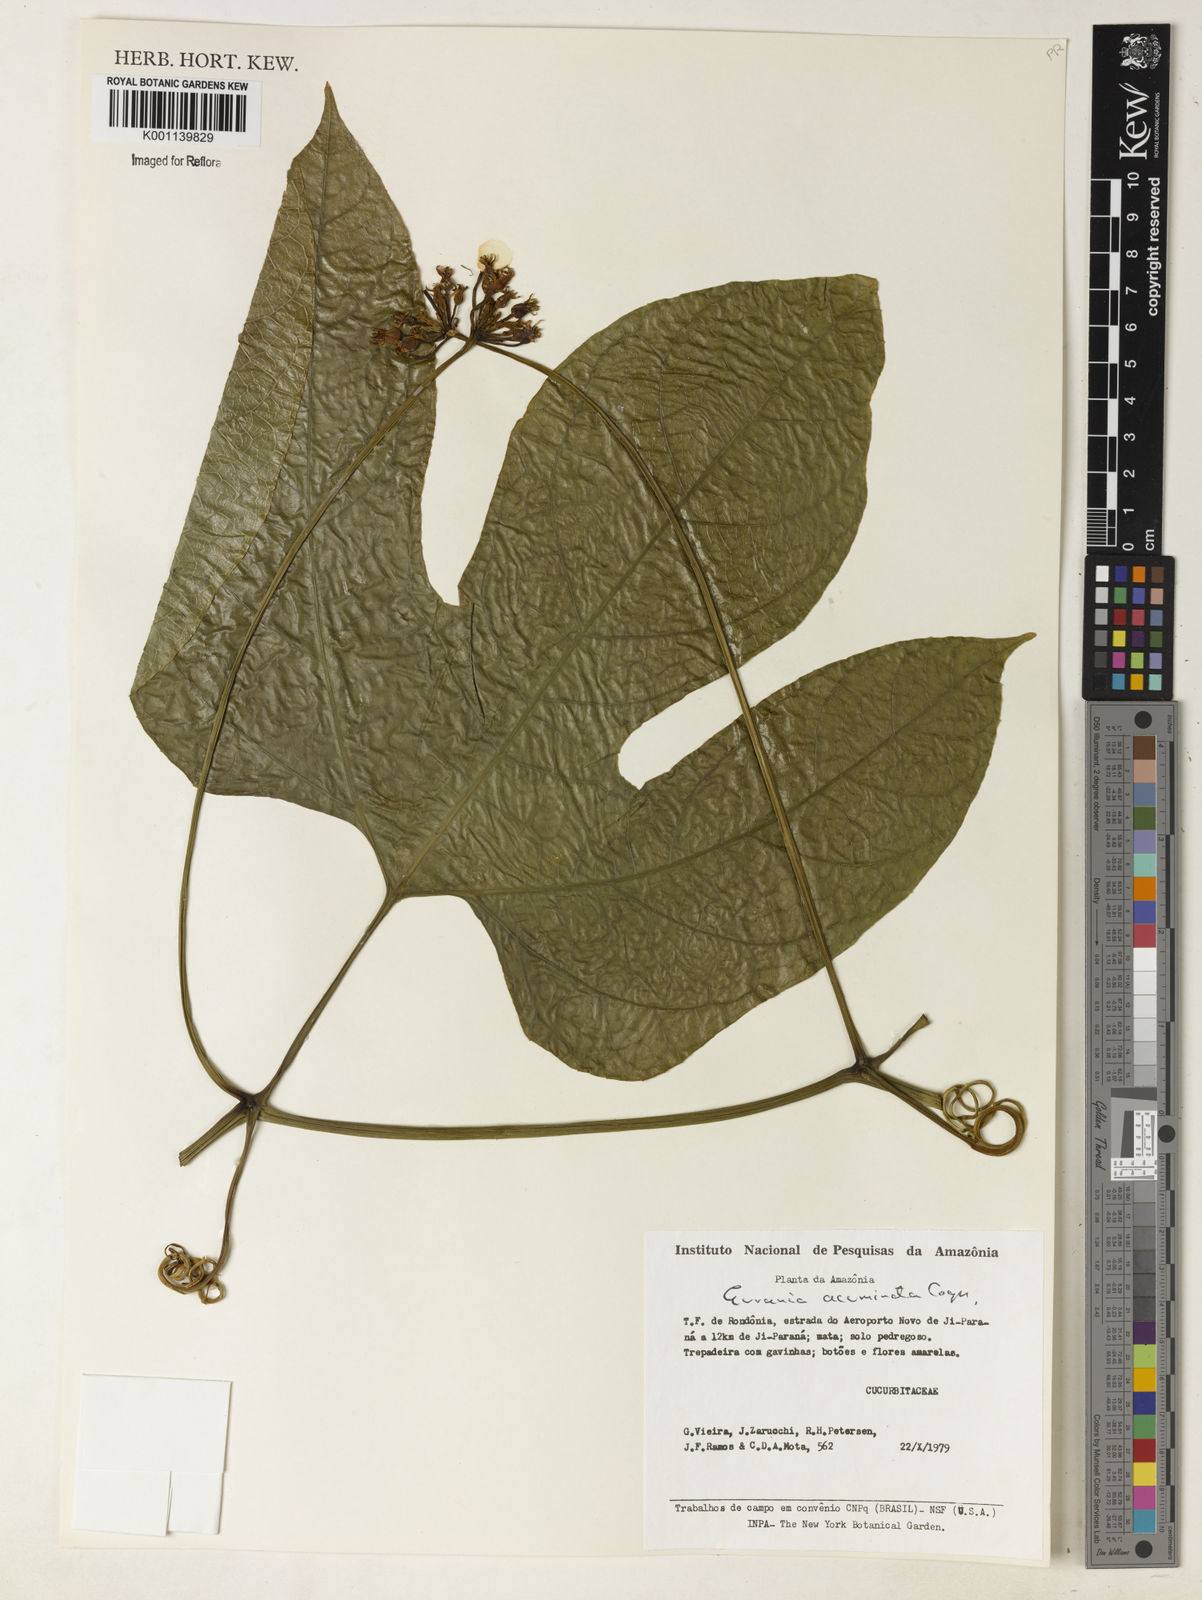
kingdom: Plantae
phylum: Tracheophyta
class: Magnoliopsida
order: Cucurbitales
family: Cucurbitaceae
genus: Gurania
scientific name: Gurania acuminata
